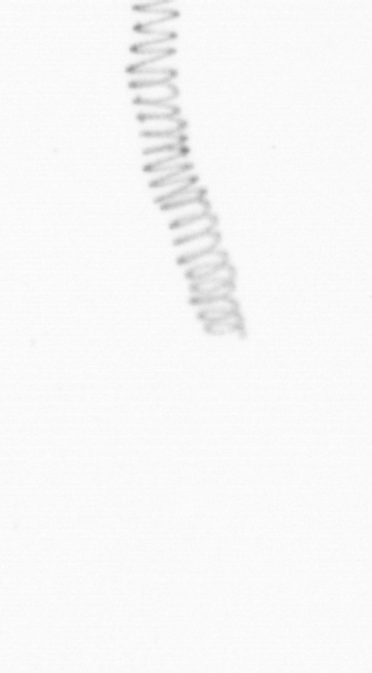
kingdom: Chromista
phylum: Ochrophyta
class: Bacillariophyceae
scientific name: Bacillariophyceae
